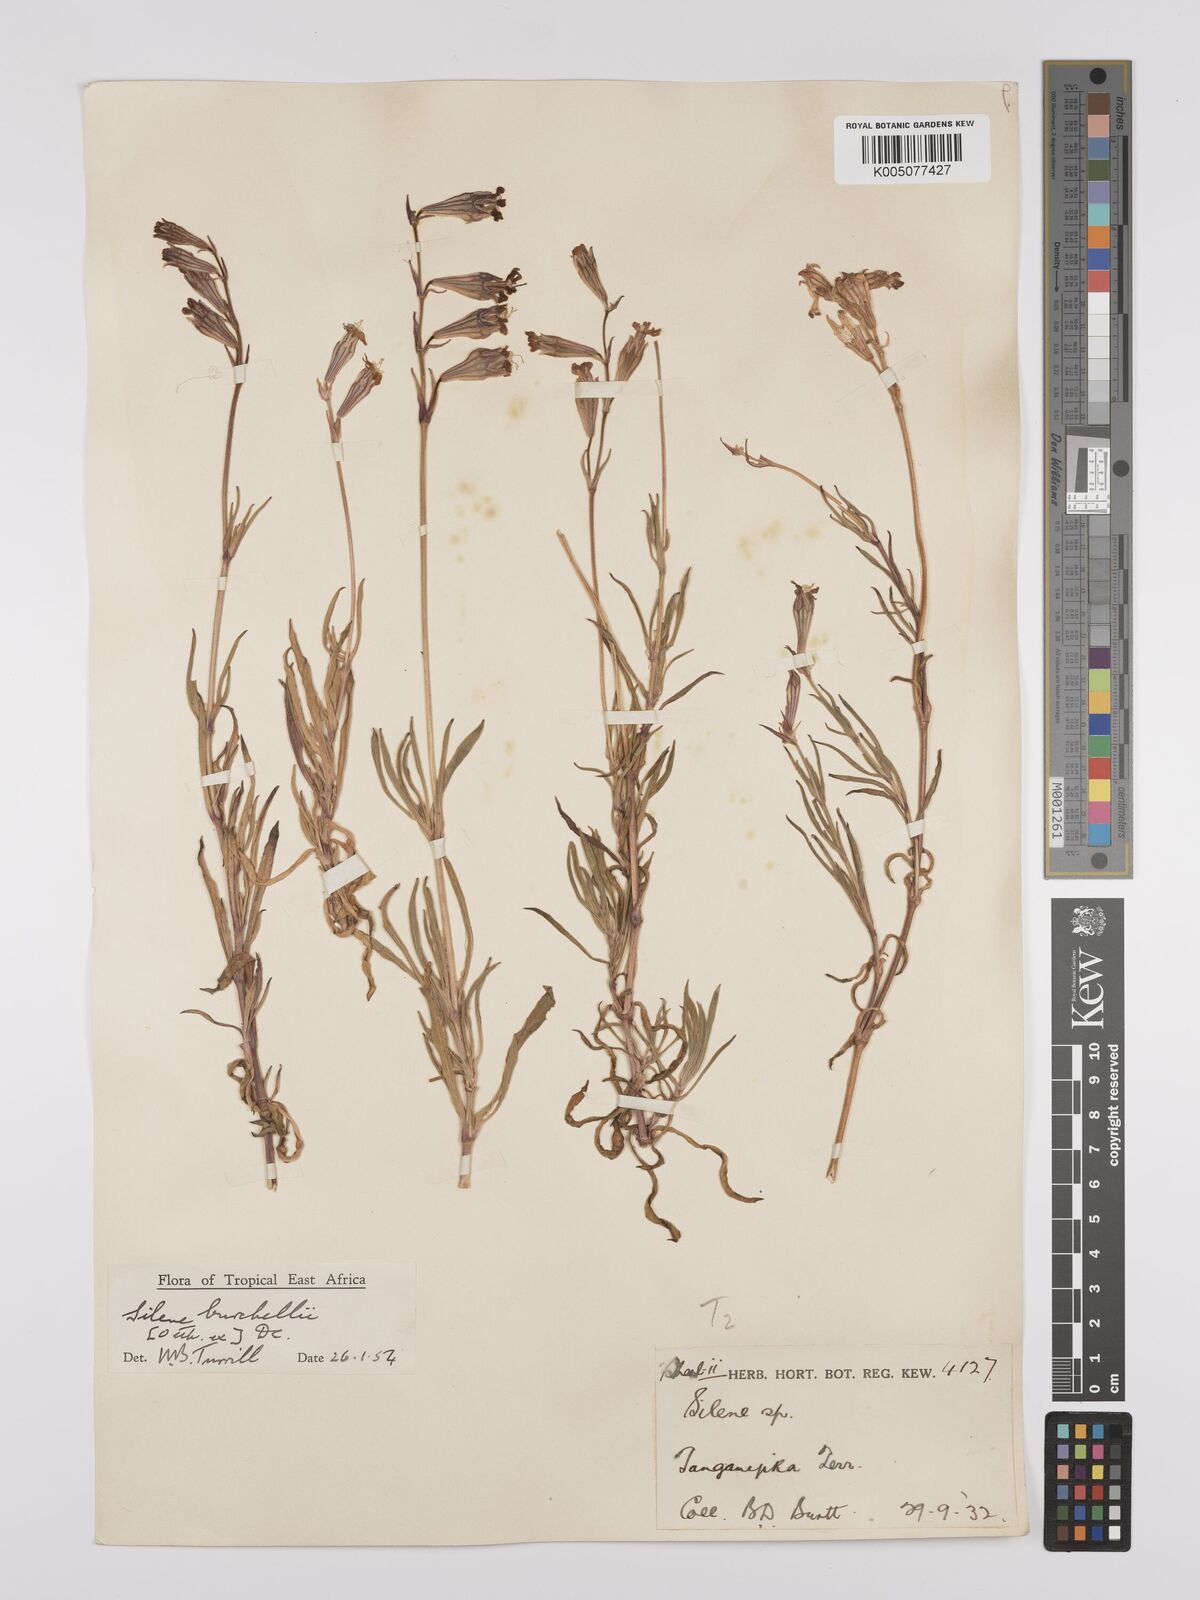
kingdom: Plantae
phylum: Tracheophyta
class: Magnoliopsida
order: Caryophyllales
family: Caryophyllaceae
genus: Silene
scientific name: Silene burchellii
